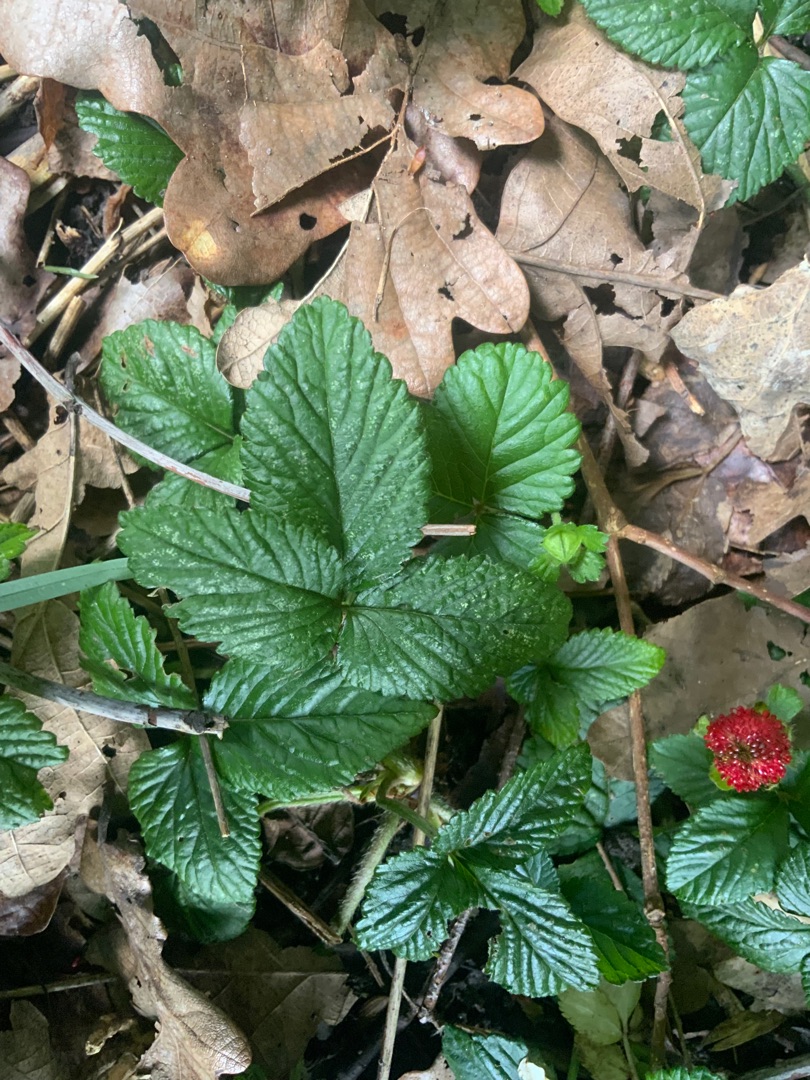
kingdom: Plantae
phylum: Tracheophyta
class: Magnoliopsida
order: Rosales
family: Rosaceae
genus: Potentilla
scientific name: Potentilla indica
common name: Indisk jordbær
